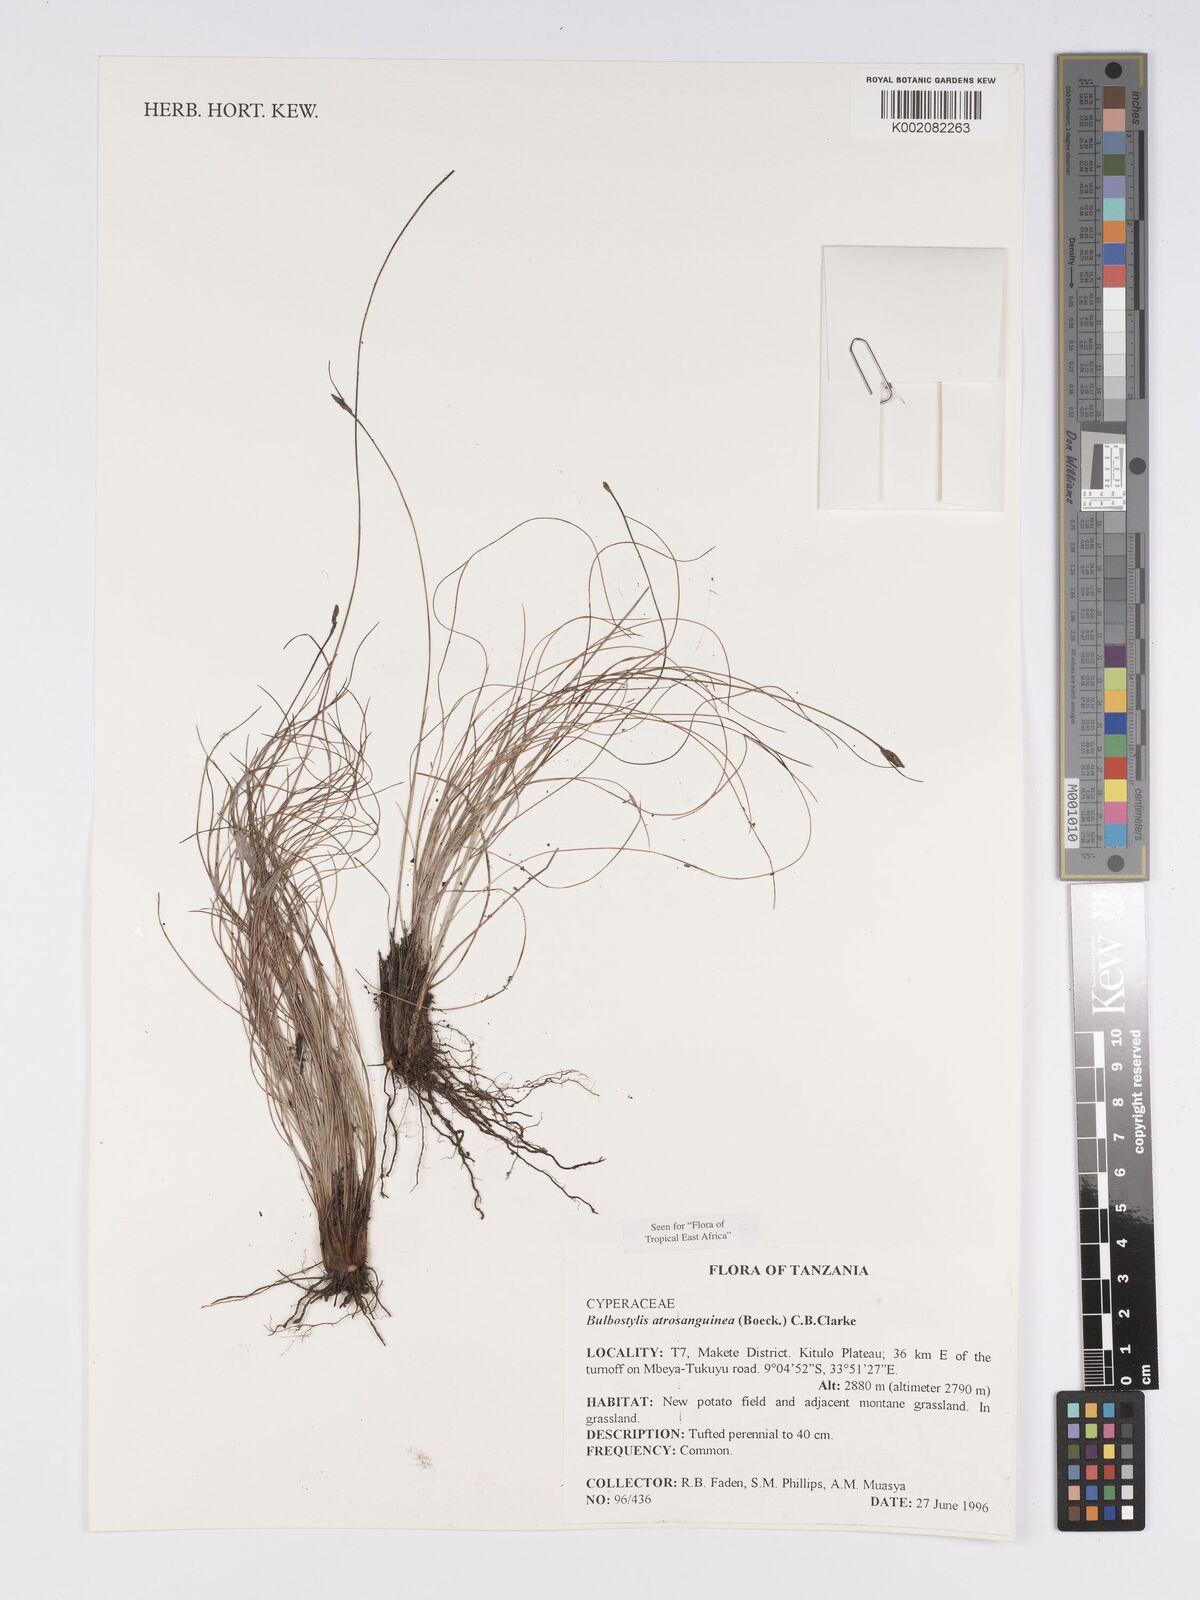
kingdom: Plantae
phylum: Tracheophyta
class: Liliopsida
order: Poales
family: Cyperaceae
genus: Bulbostylis
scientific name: Bulbostylis atrosanguinea
